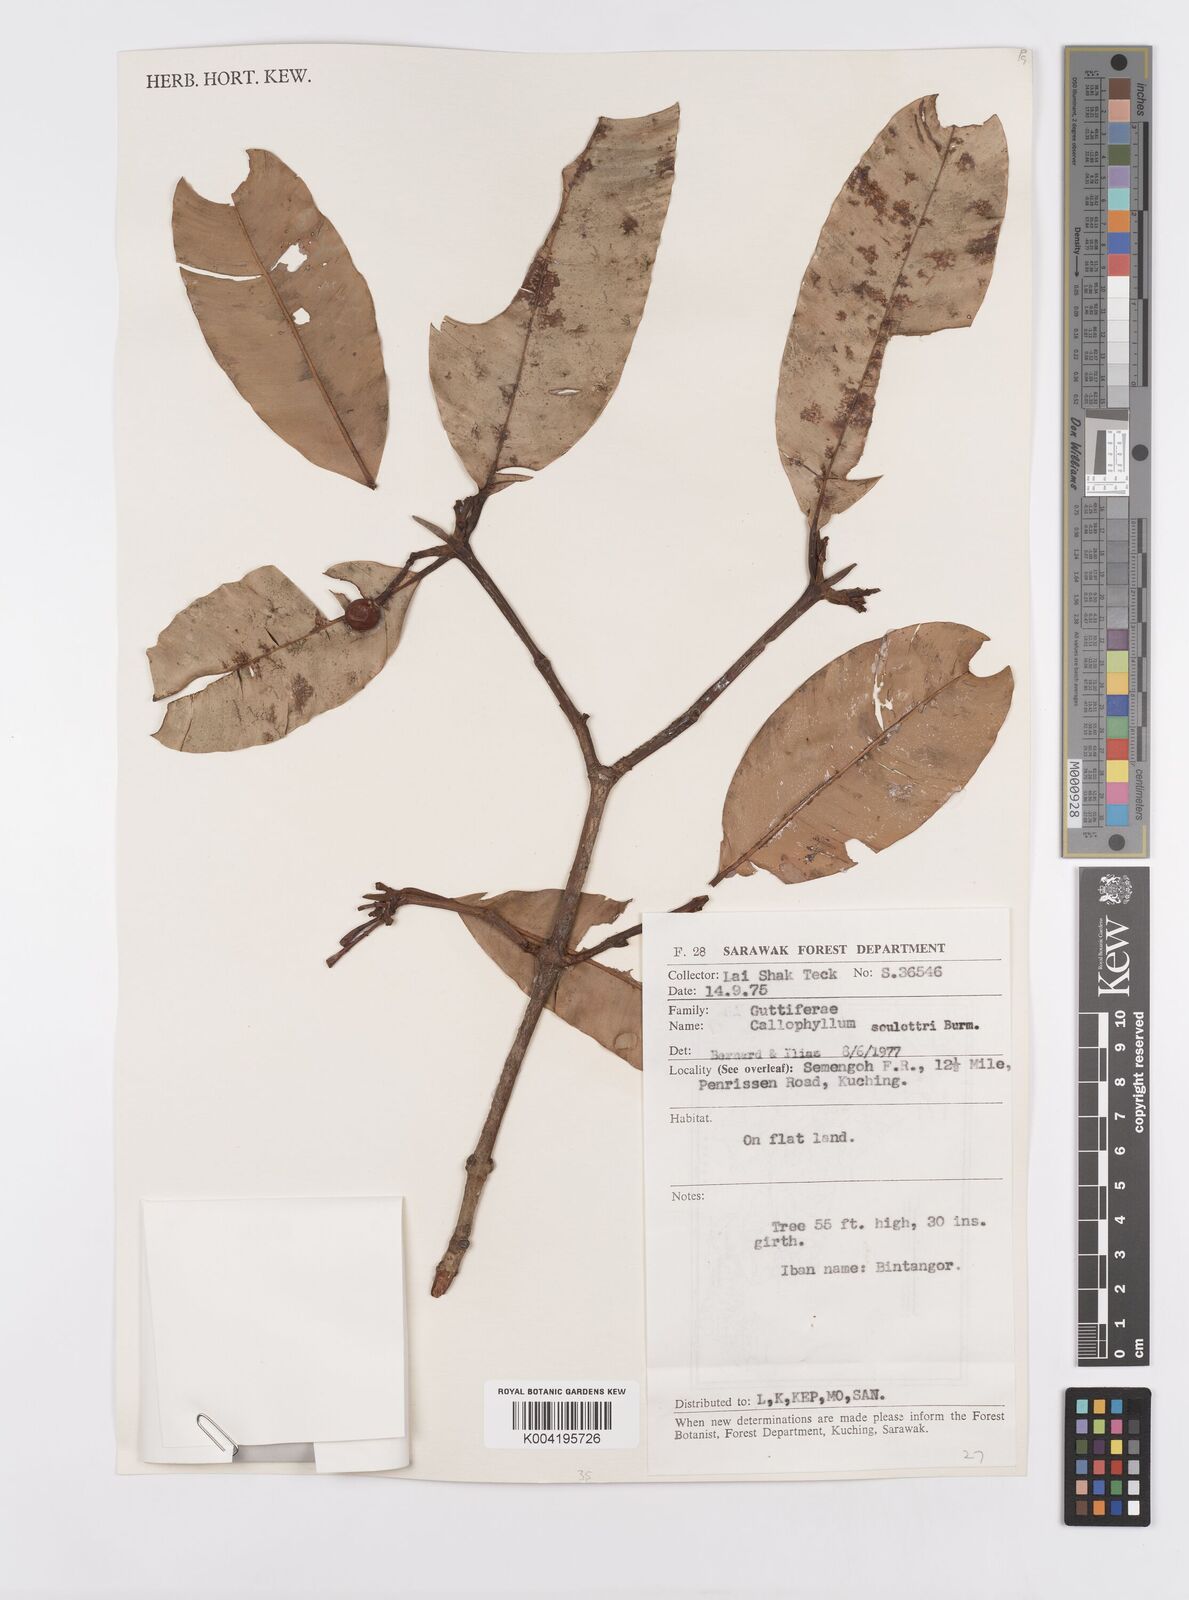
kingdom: Plantae
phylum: Tracheophyta
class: Magnoliopsida
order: Malpighiales
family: Calophyllaceae
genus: Calophyllum
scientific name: Calophyllum soulattri
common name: Bitangoor boonot
